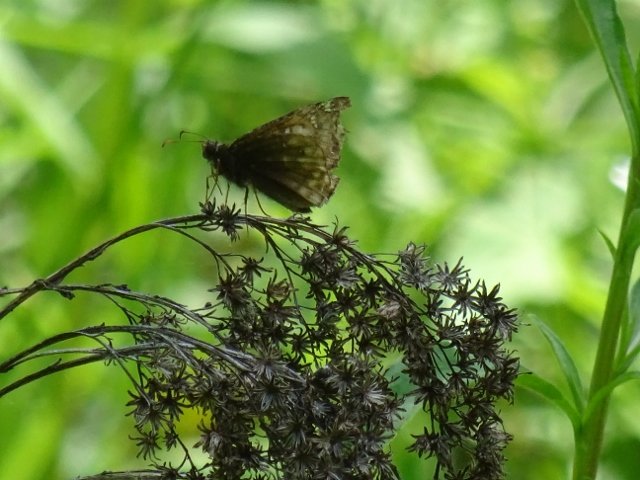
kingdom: Animalia
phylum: Arthropoda
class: Insecta
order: Lepidoptera
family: Hesperiidae
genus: Erynnis
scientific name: Erynnis
